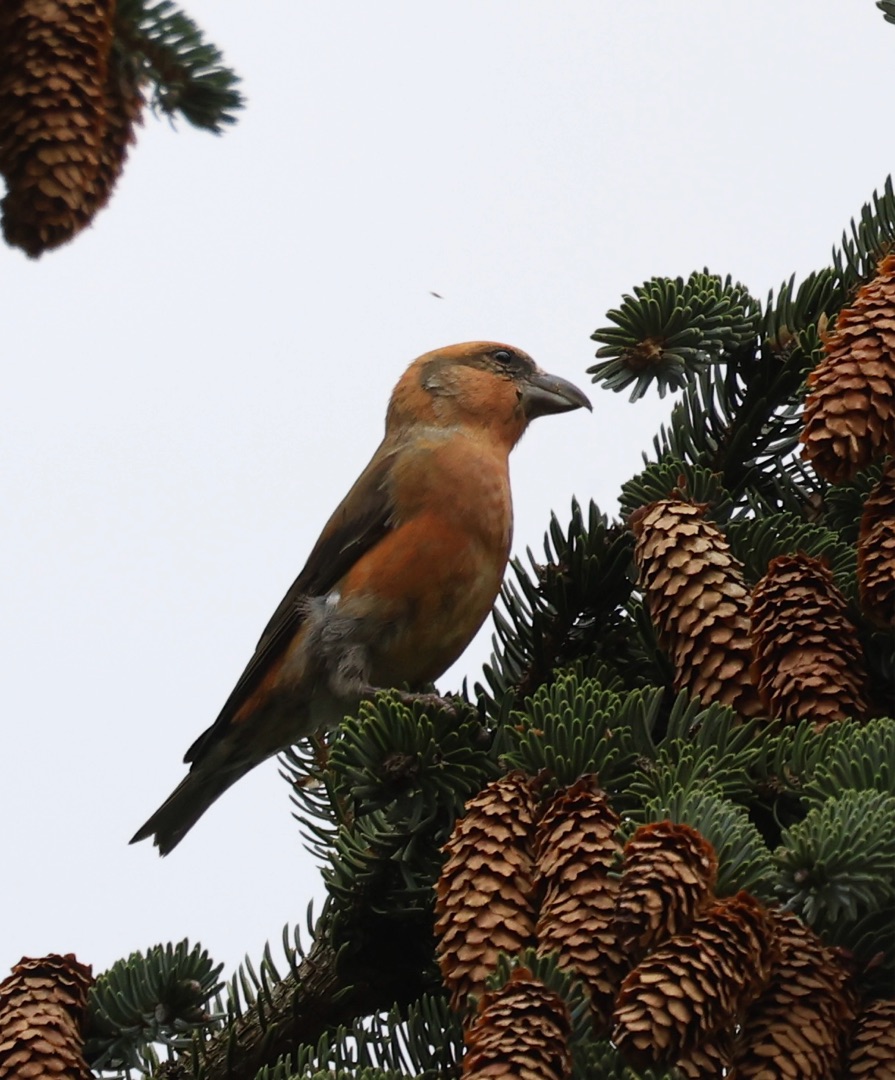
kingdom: Animalia
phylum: Chordata
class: Aves
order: Passeriformes
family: Fringillidae
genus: Loxia
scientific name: Loxia curvirostra
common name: Lille korsnæb
